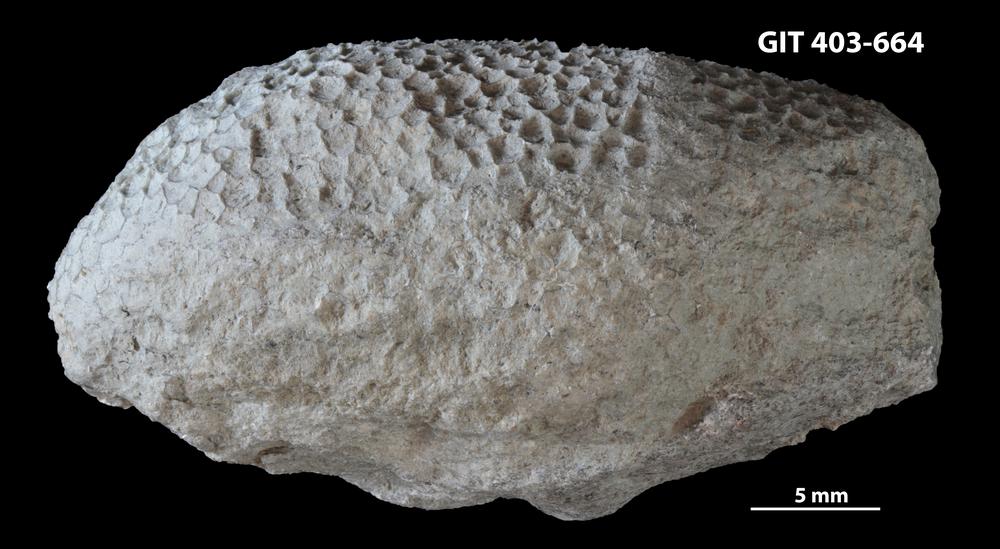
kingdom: Animalia
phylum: Cnidaria
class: Anthozoa
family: Favositidae
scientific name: Favositidae
